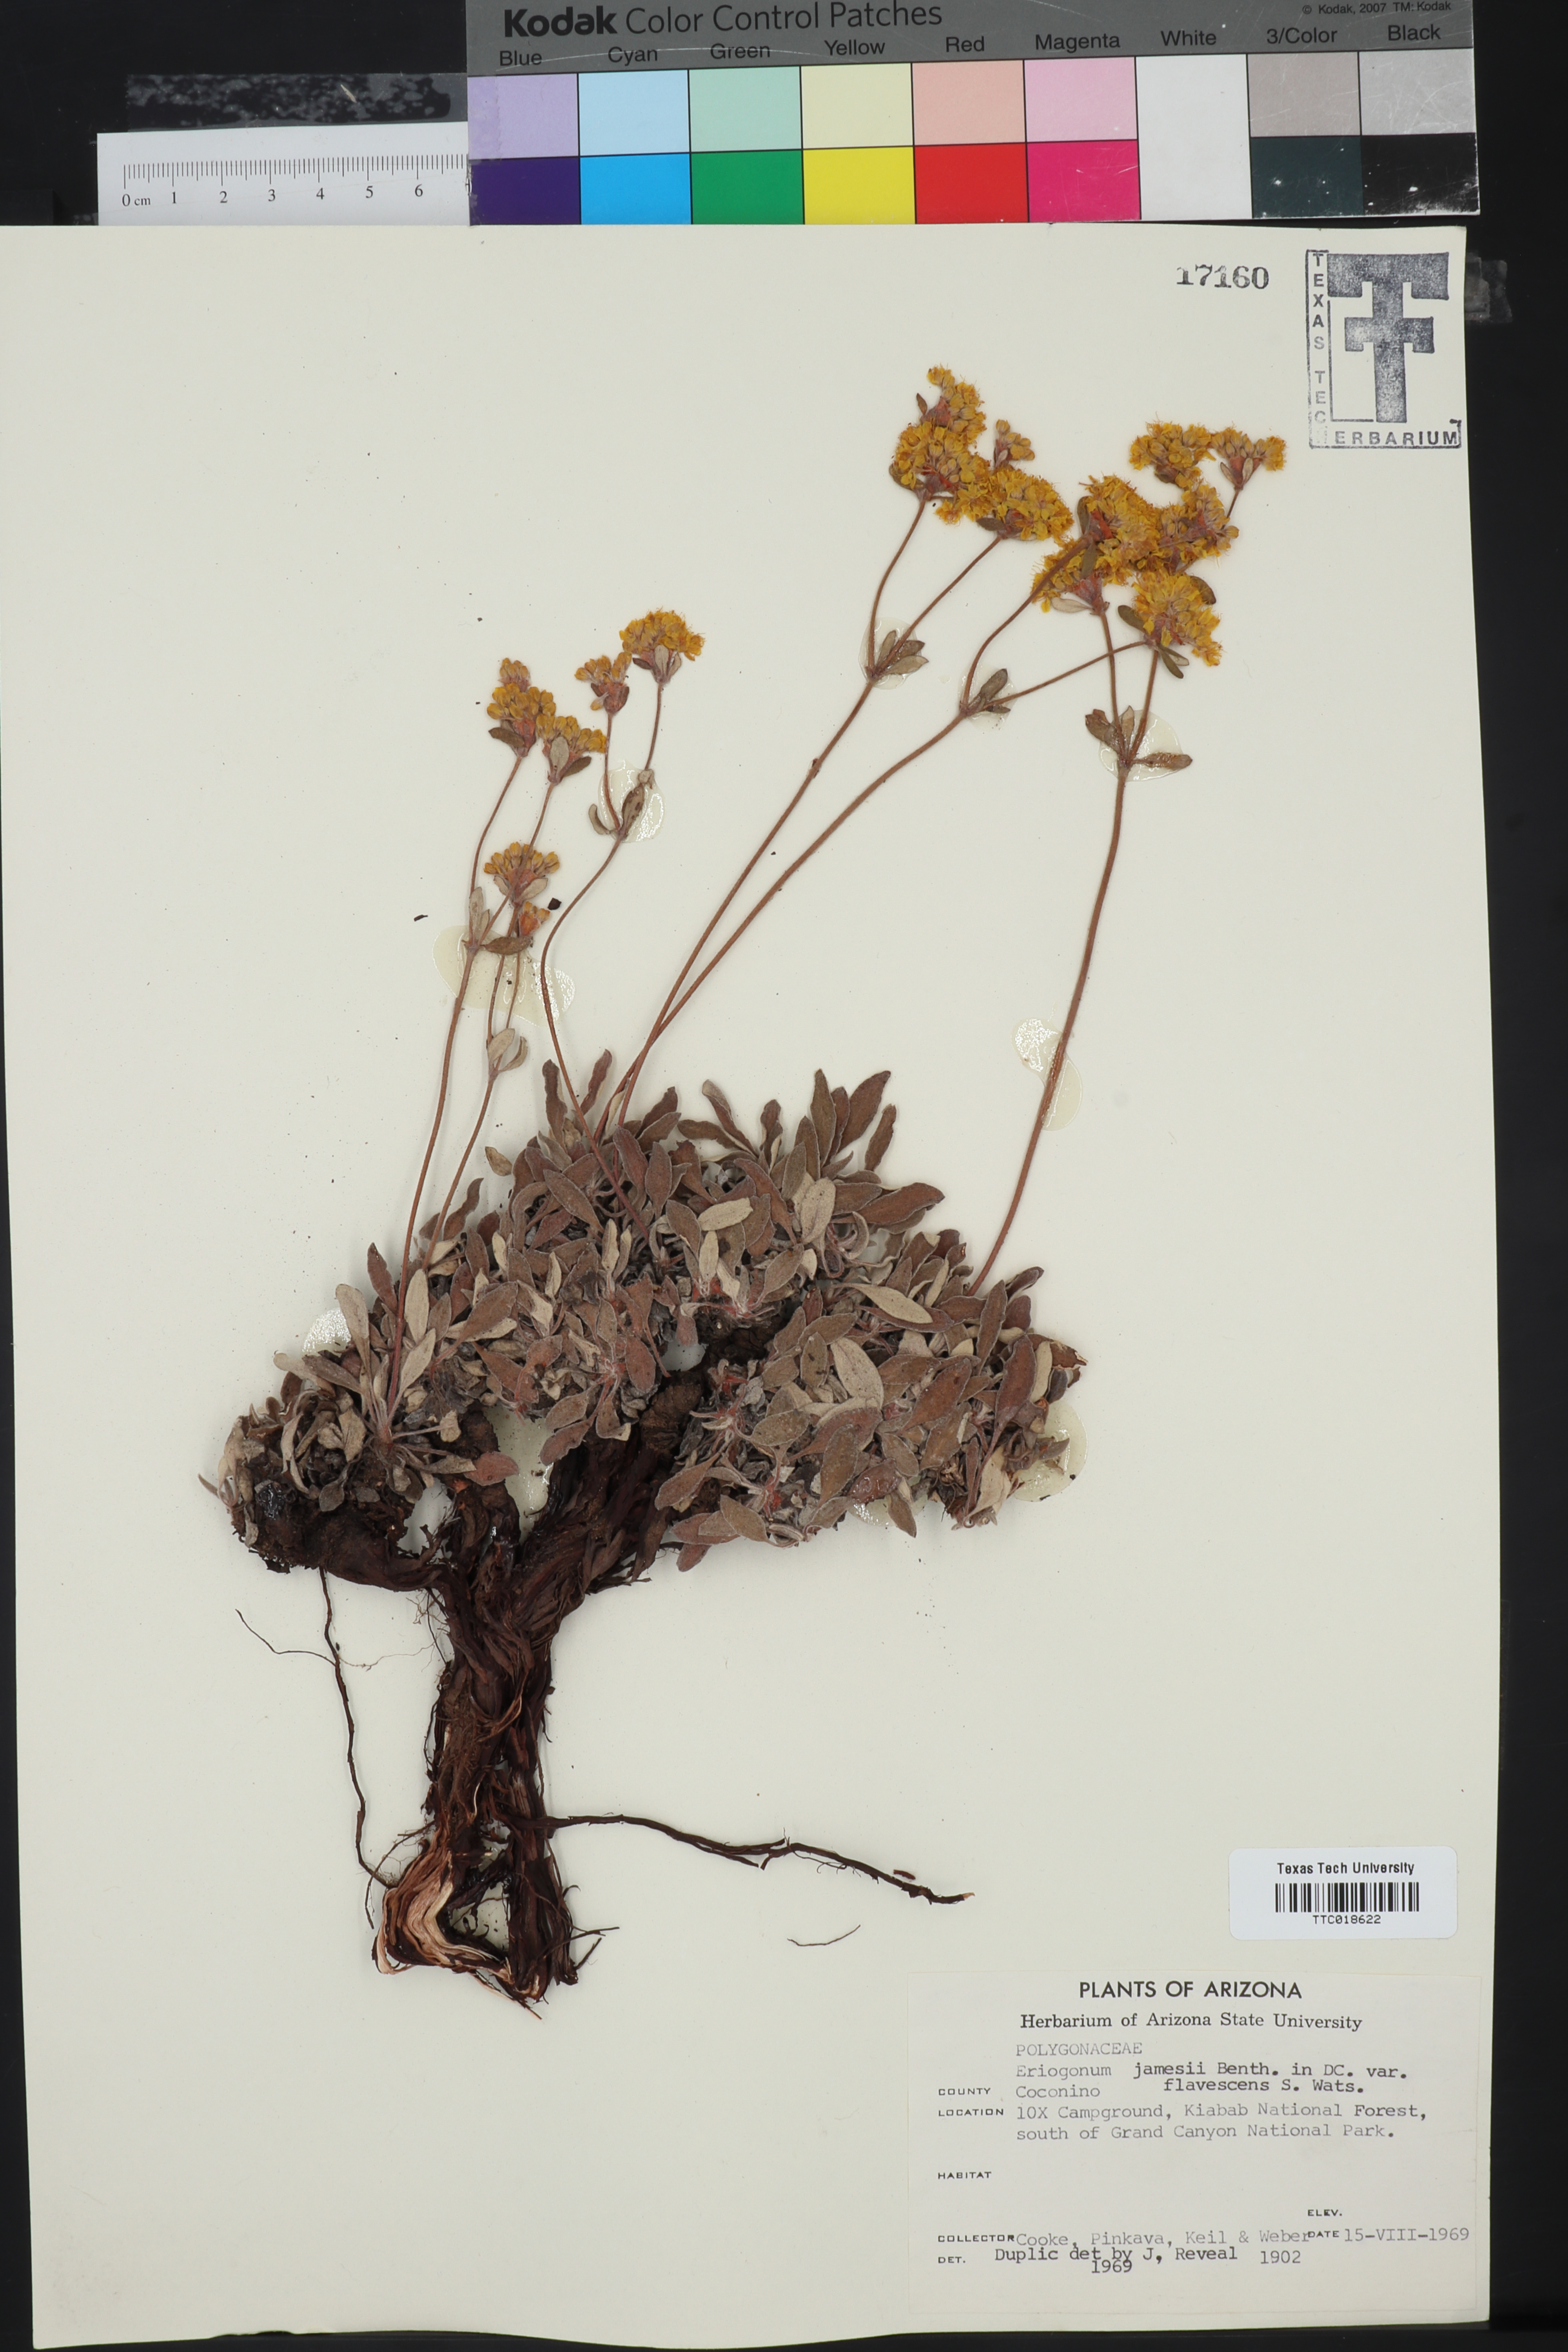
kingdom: Plantae
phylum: Tracheophyta
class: Magnoliopsida
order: Caryophyllales
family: Polygonaceae
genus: Eriogonum
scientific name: Eriogonum arcuatum
